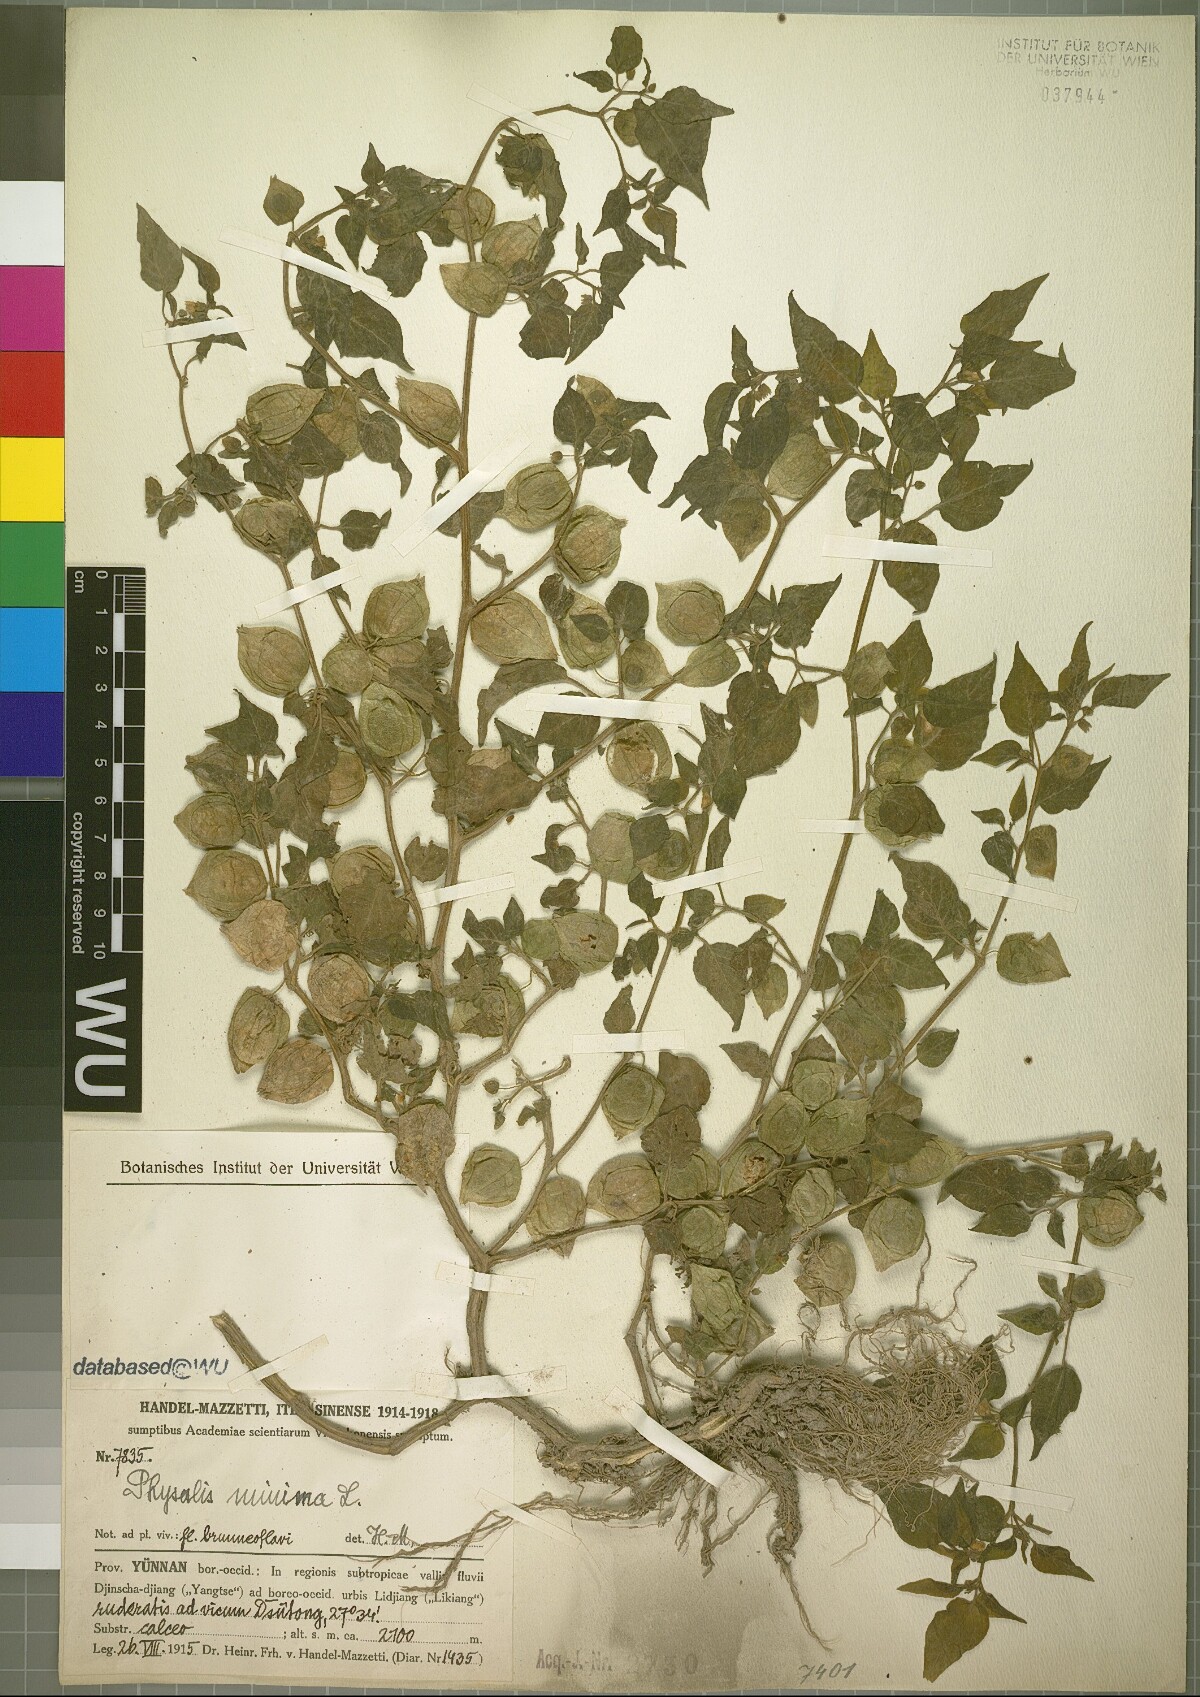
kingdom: Plantae
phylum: Tracheophyta
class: Magnoliopsida
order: Solanales
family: Solanaceae
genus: Physalis
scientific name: Physalis angulata
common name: Angular winter-cherry
